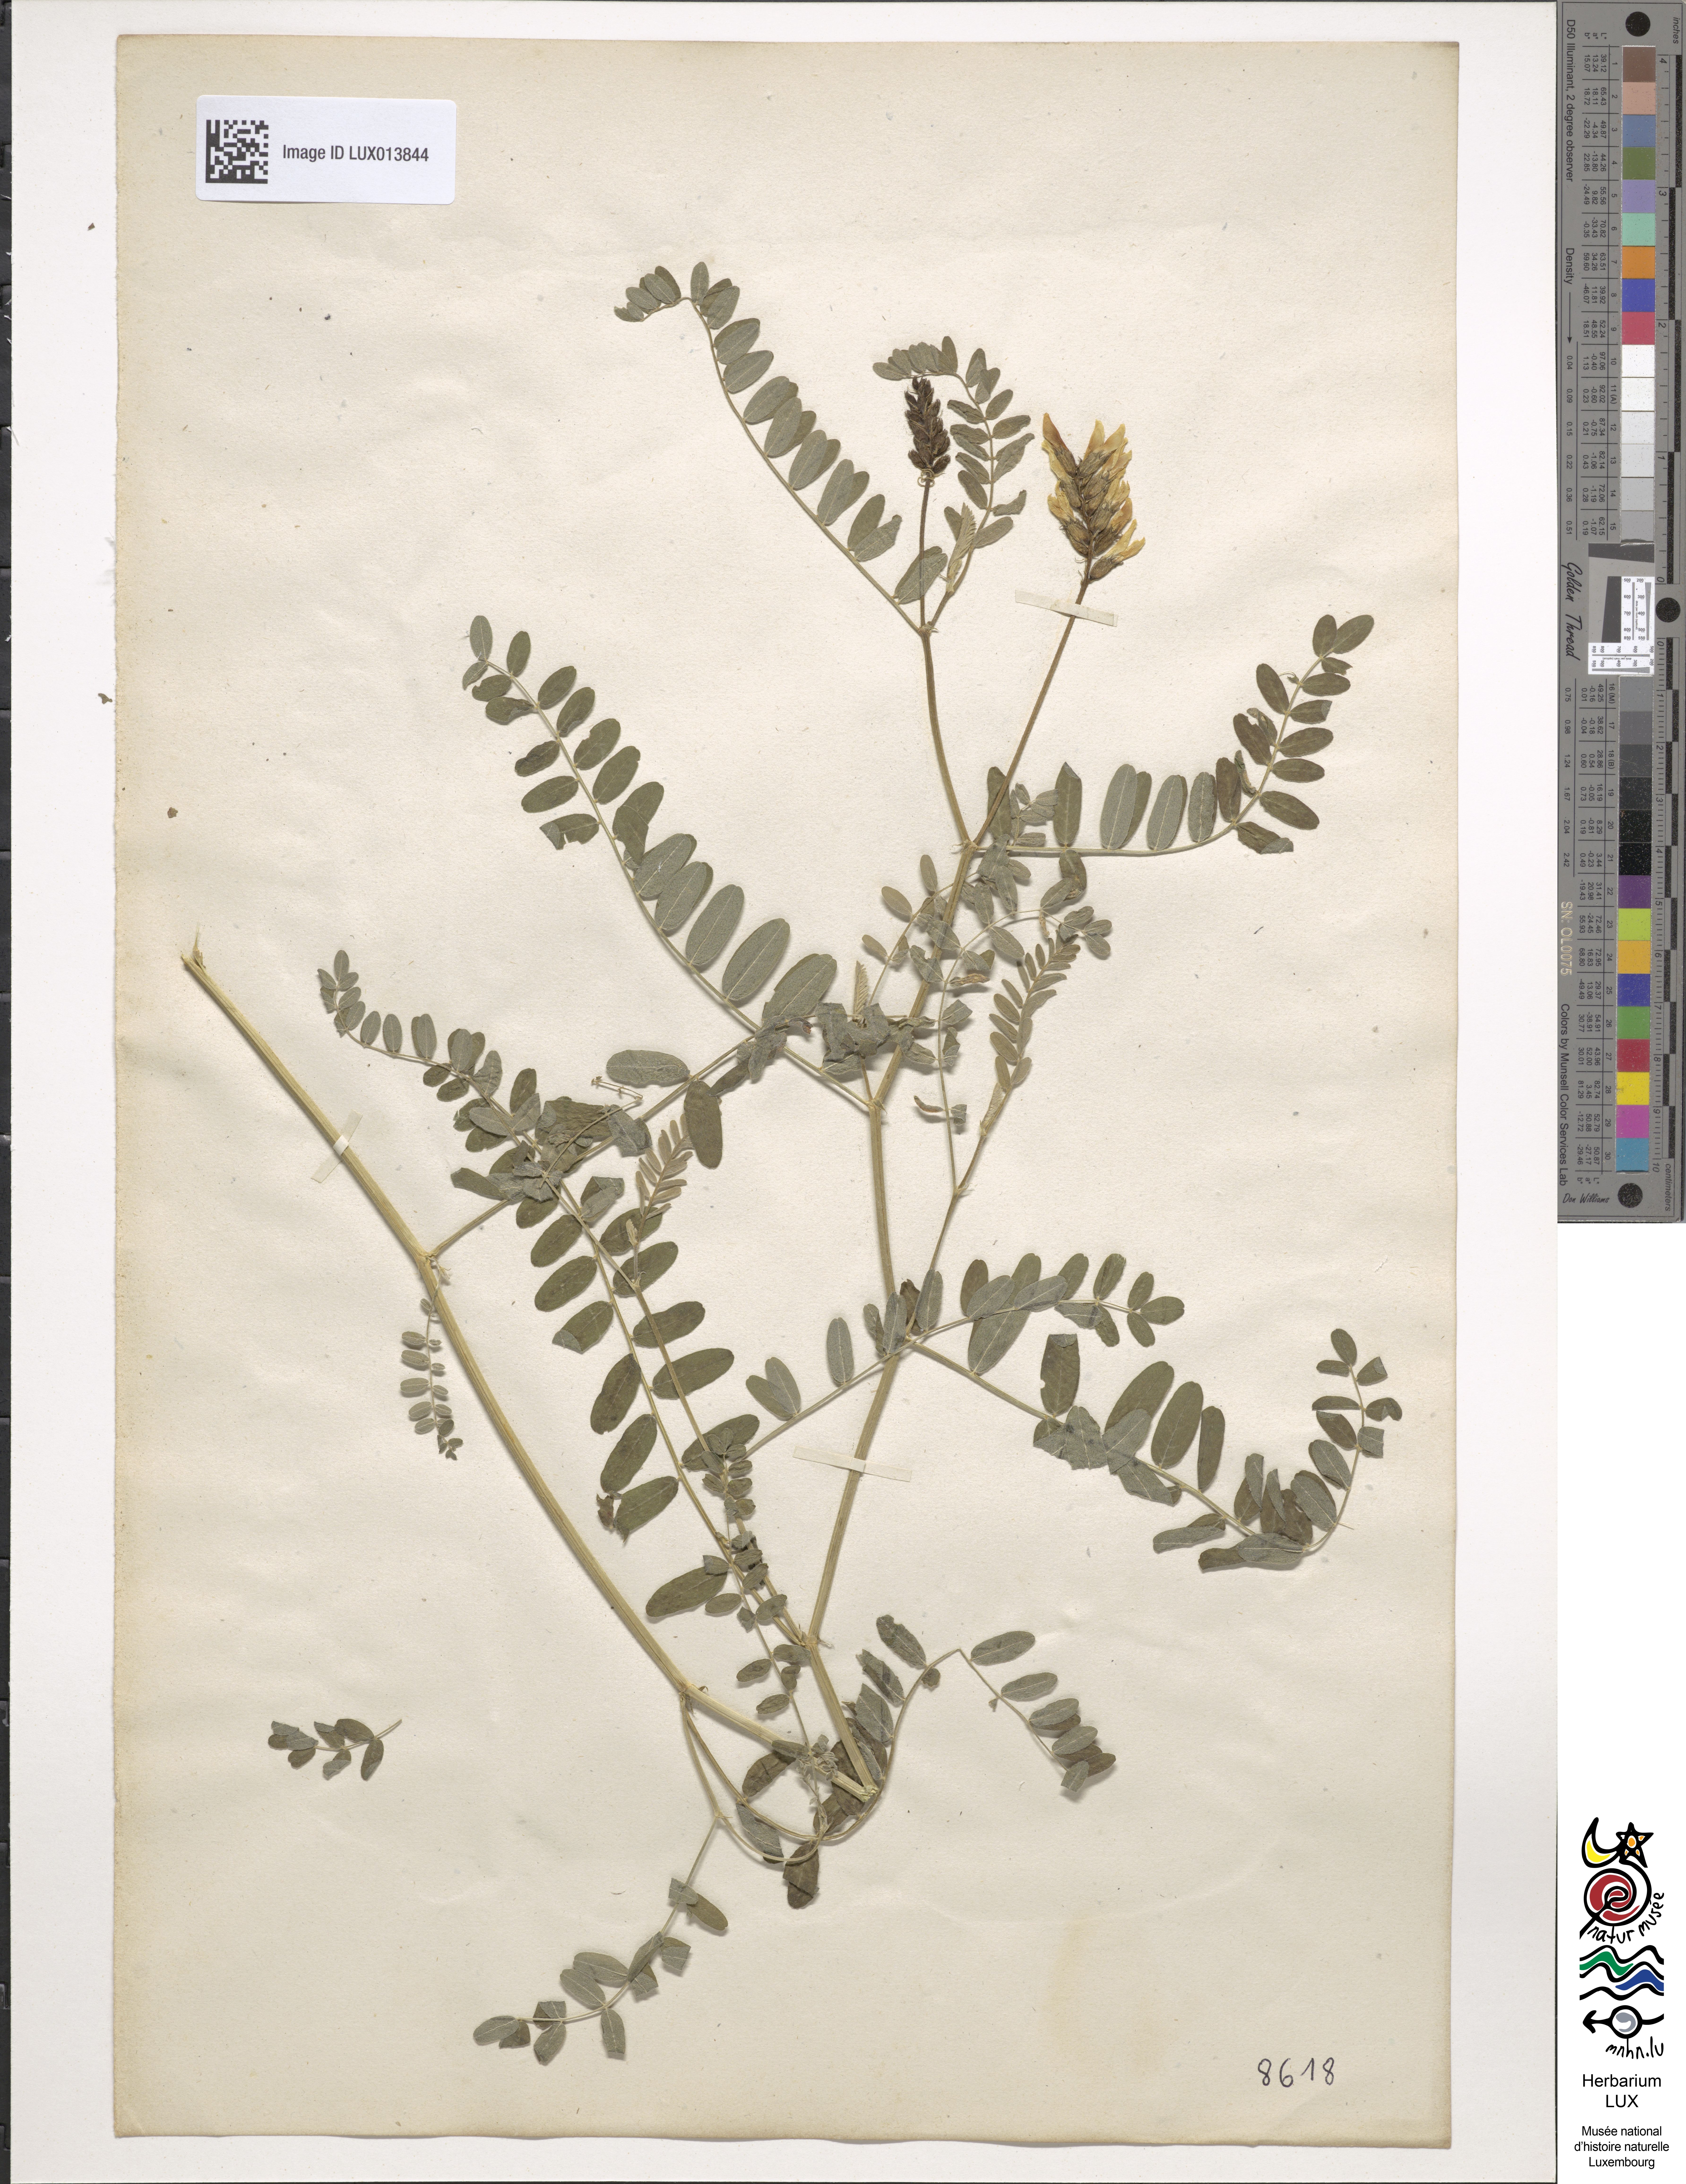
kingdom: Plantae
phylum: Tracheophyta
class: Magnoliopsida
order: Fabales
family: Fabaceae
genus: Astragalus
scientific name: Astragalus cicer
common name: Chick-pea milk-vetch
